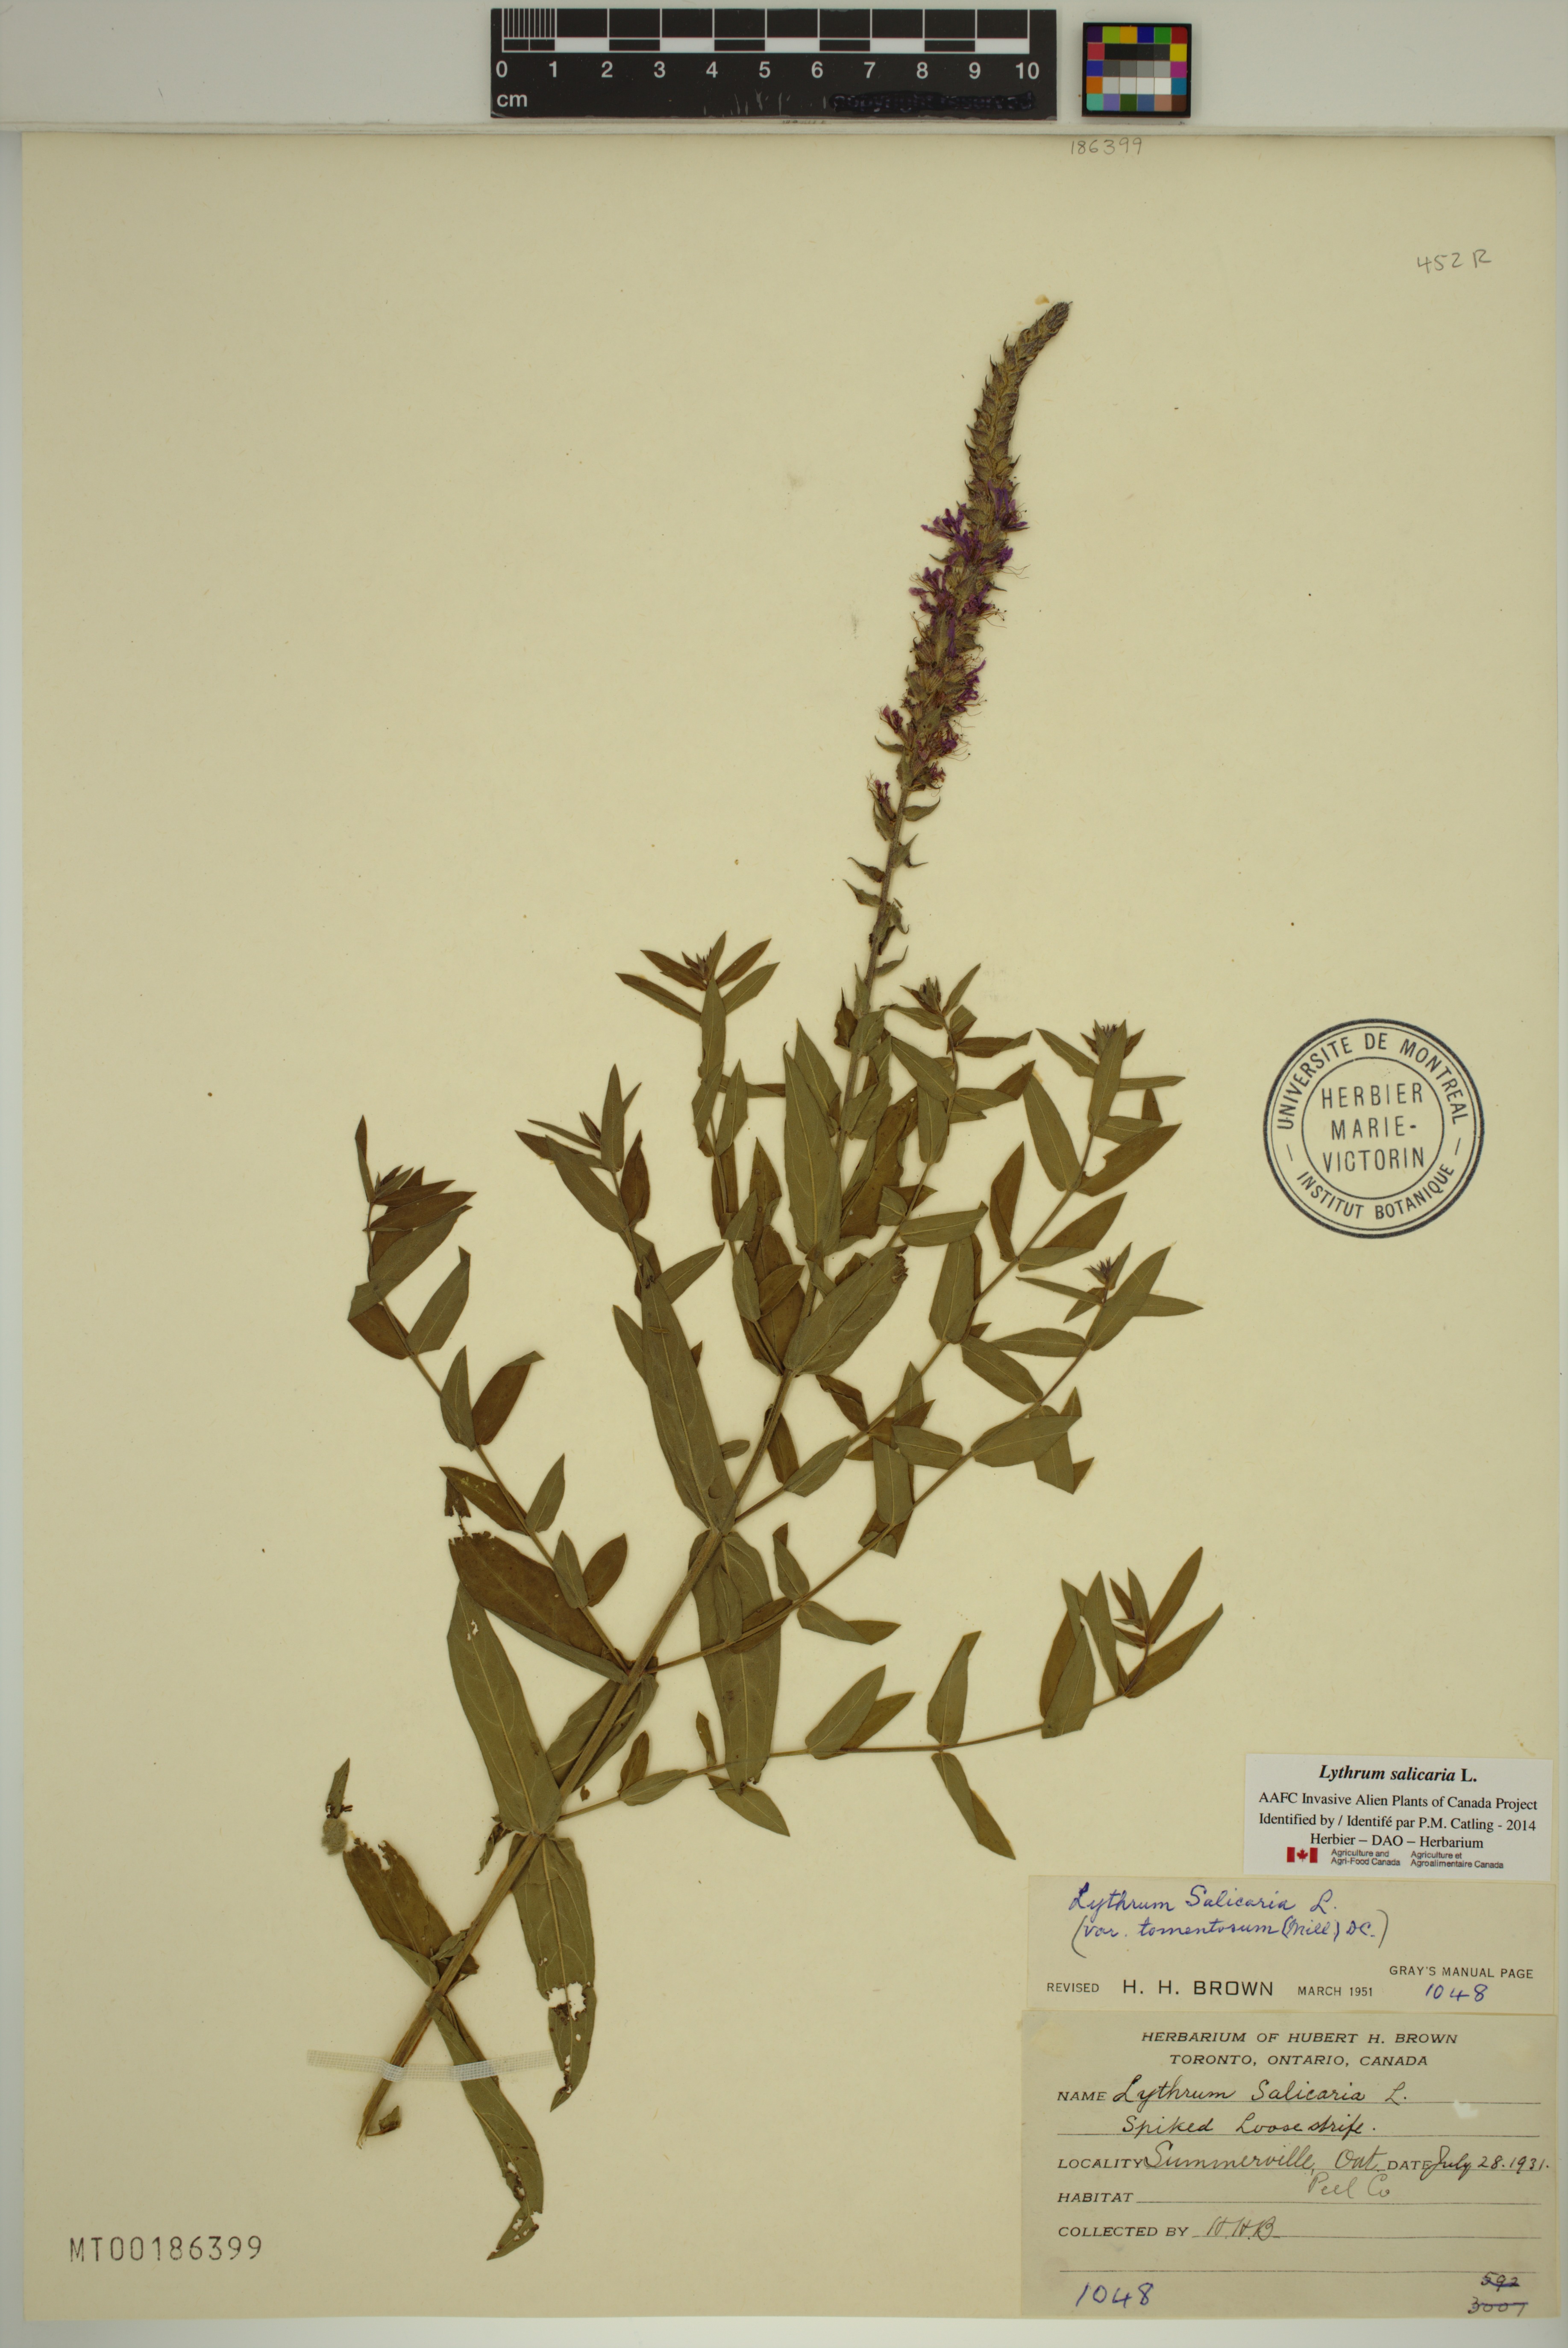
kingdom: Plantae
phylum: Tracheophyta
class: Magnoliopsida
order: Myrtales
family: Lythraceae
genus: Lythrum
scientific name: Lythrum salicaria
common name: Purple loosestrife
